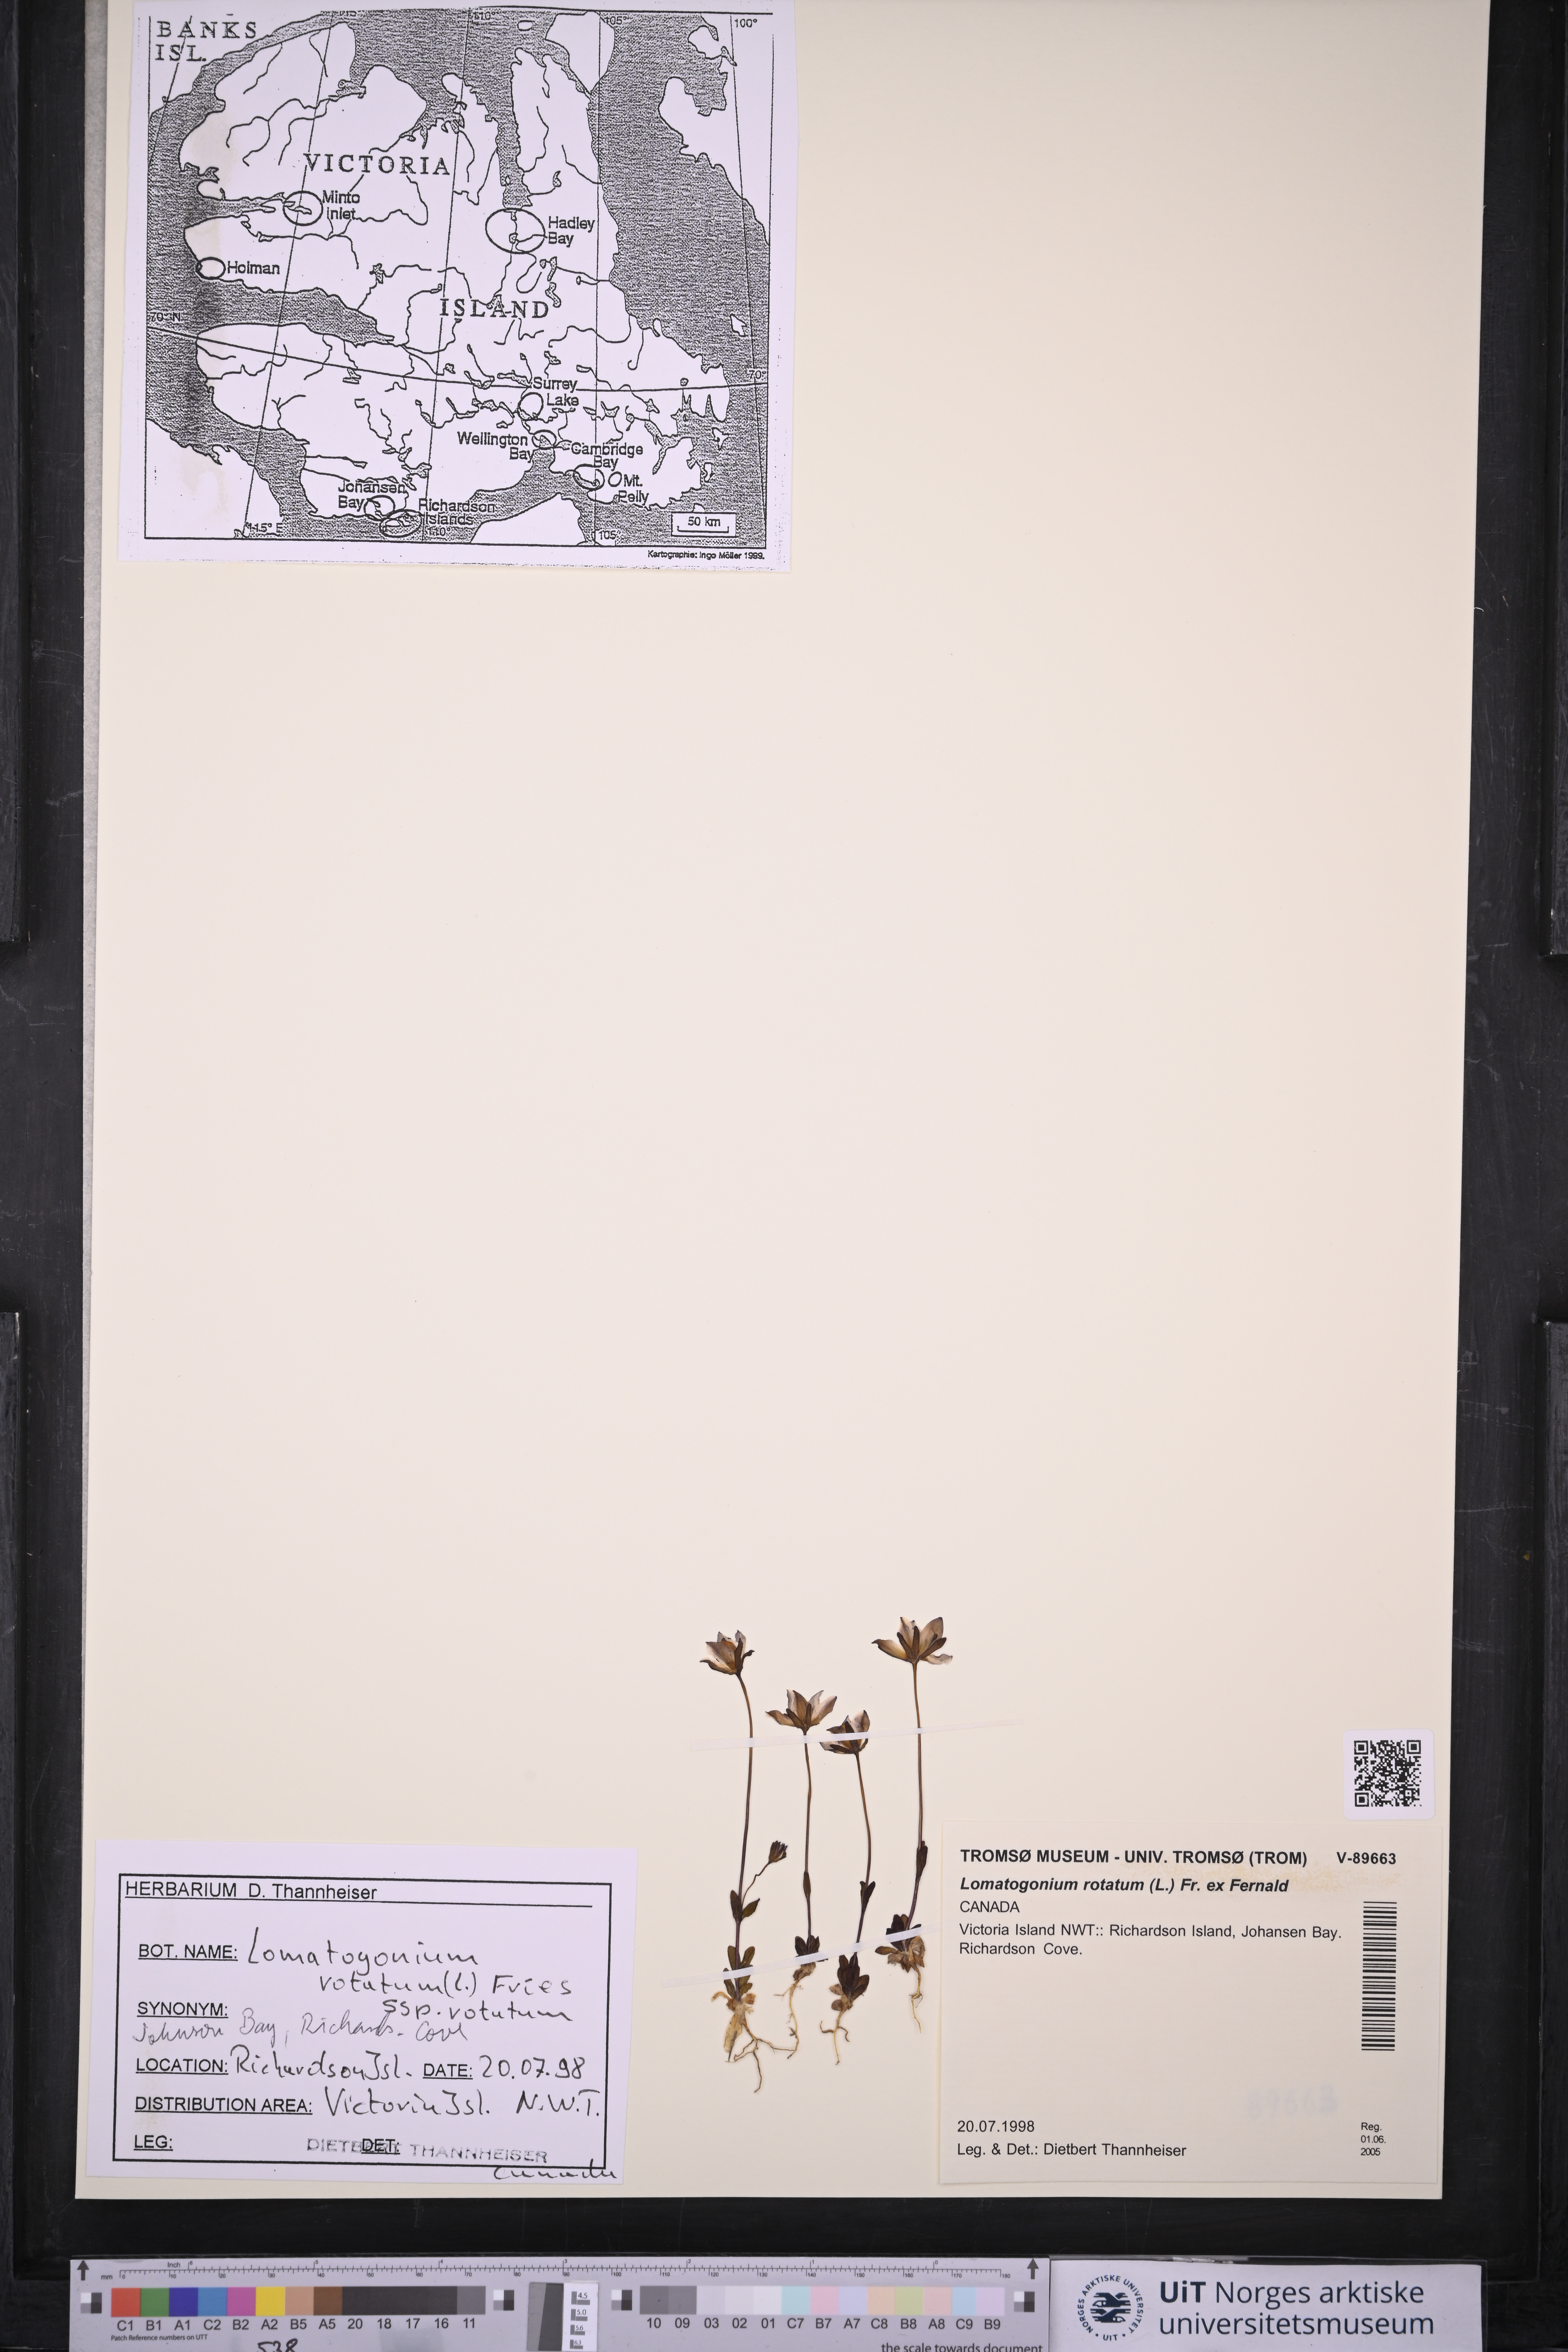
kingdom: Plantae
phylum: Tracheophyta
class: Magnoliopsida
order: Gentianales
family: Gentianaceae
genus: Lomatogonium
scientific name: Lomatogonium rotatum
